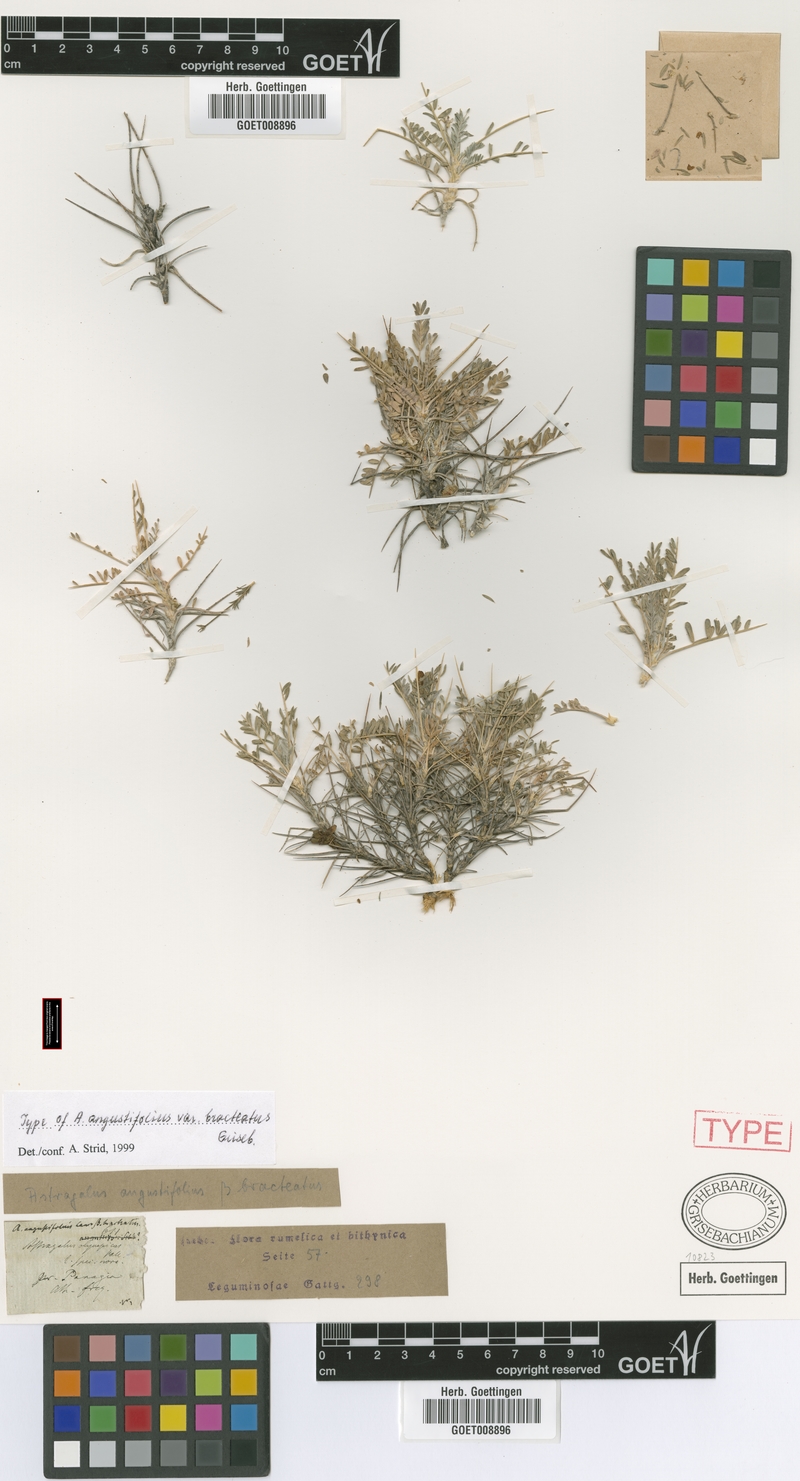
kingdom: Plantae
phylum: Tracheophyta
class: Magnoliopsida
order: Fabales
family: Fabaceae
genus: Astragalus
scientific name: Astragalus angustifolius
